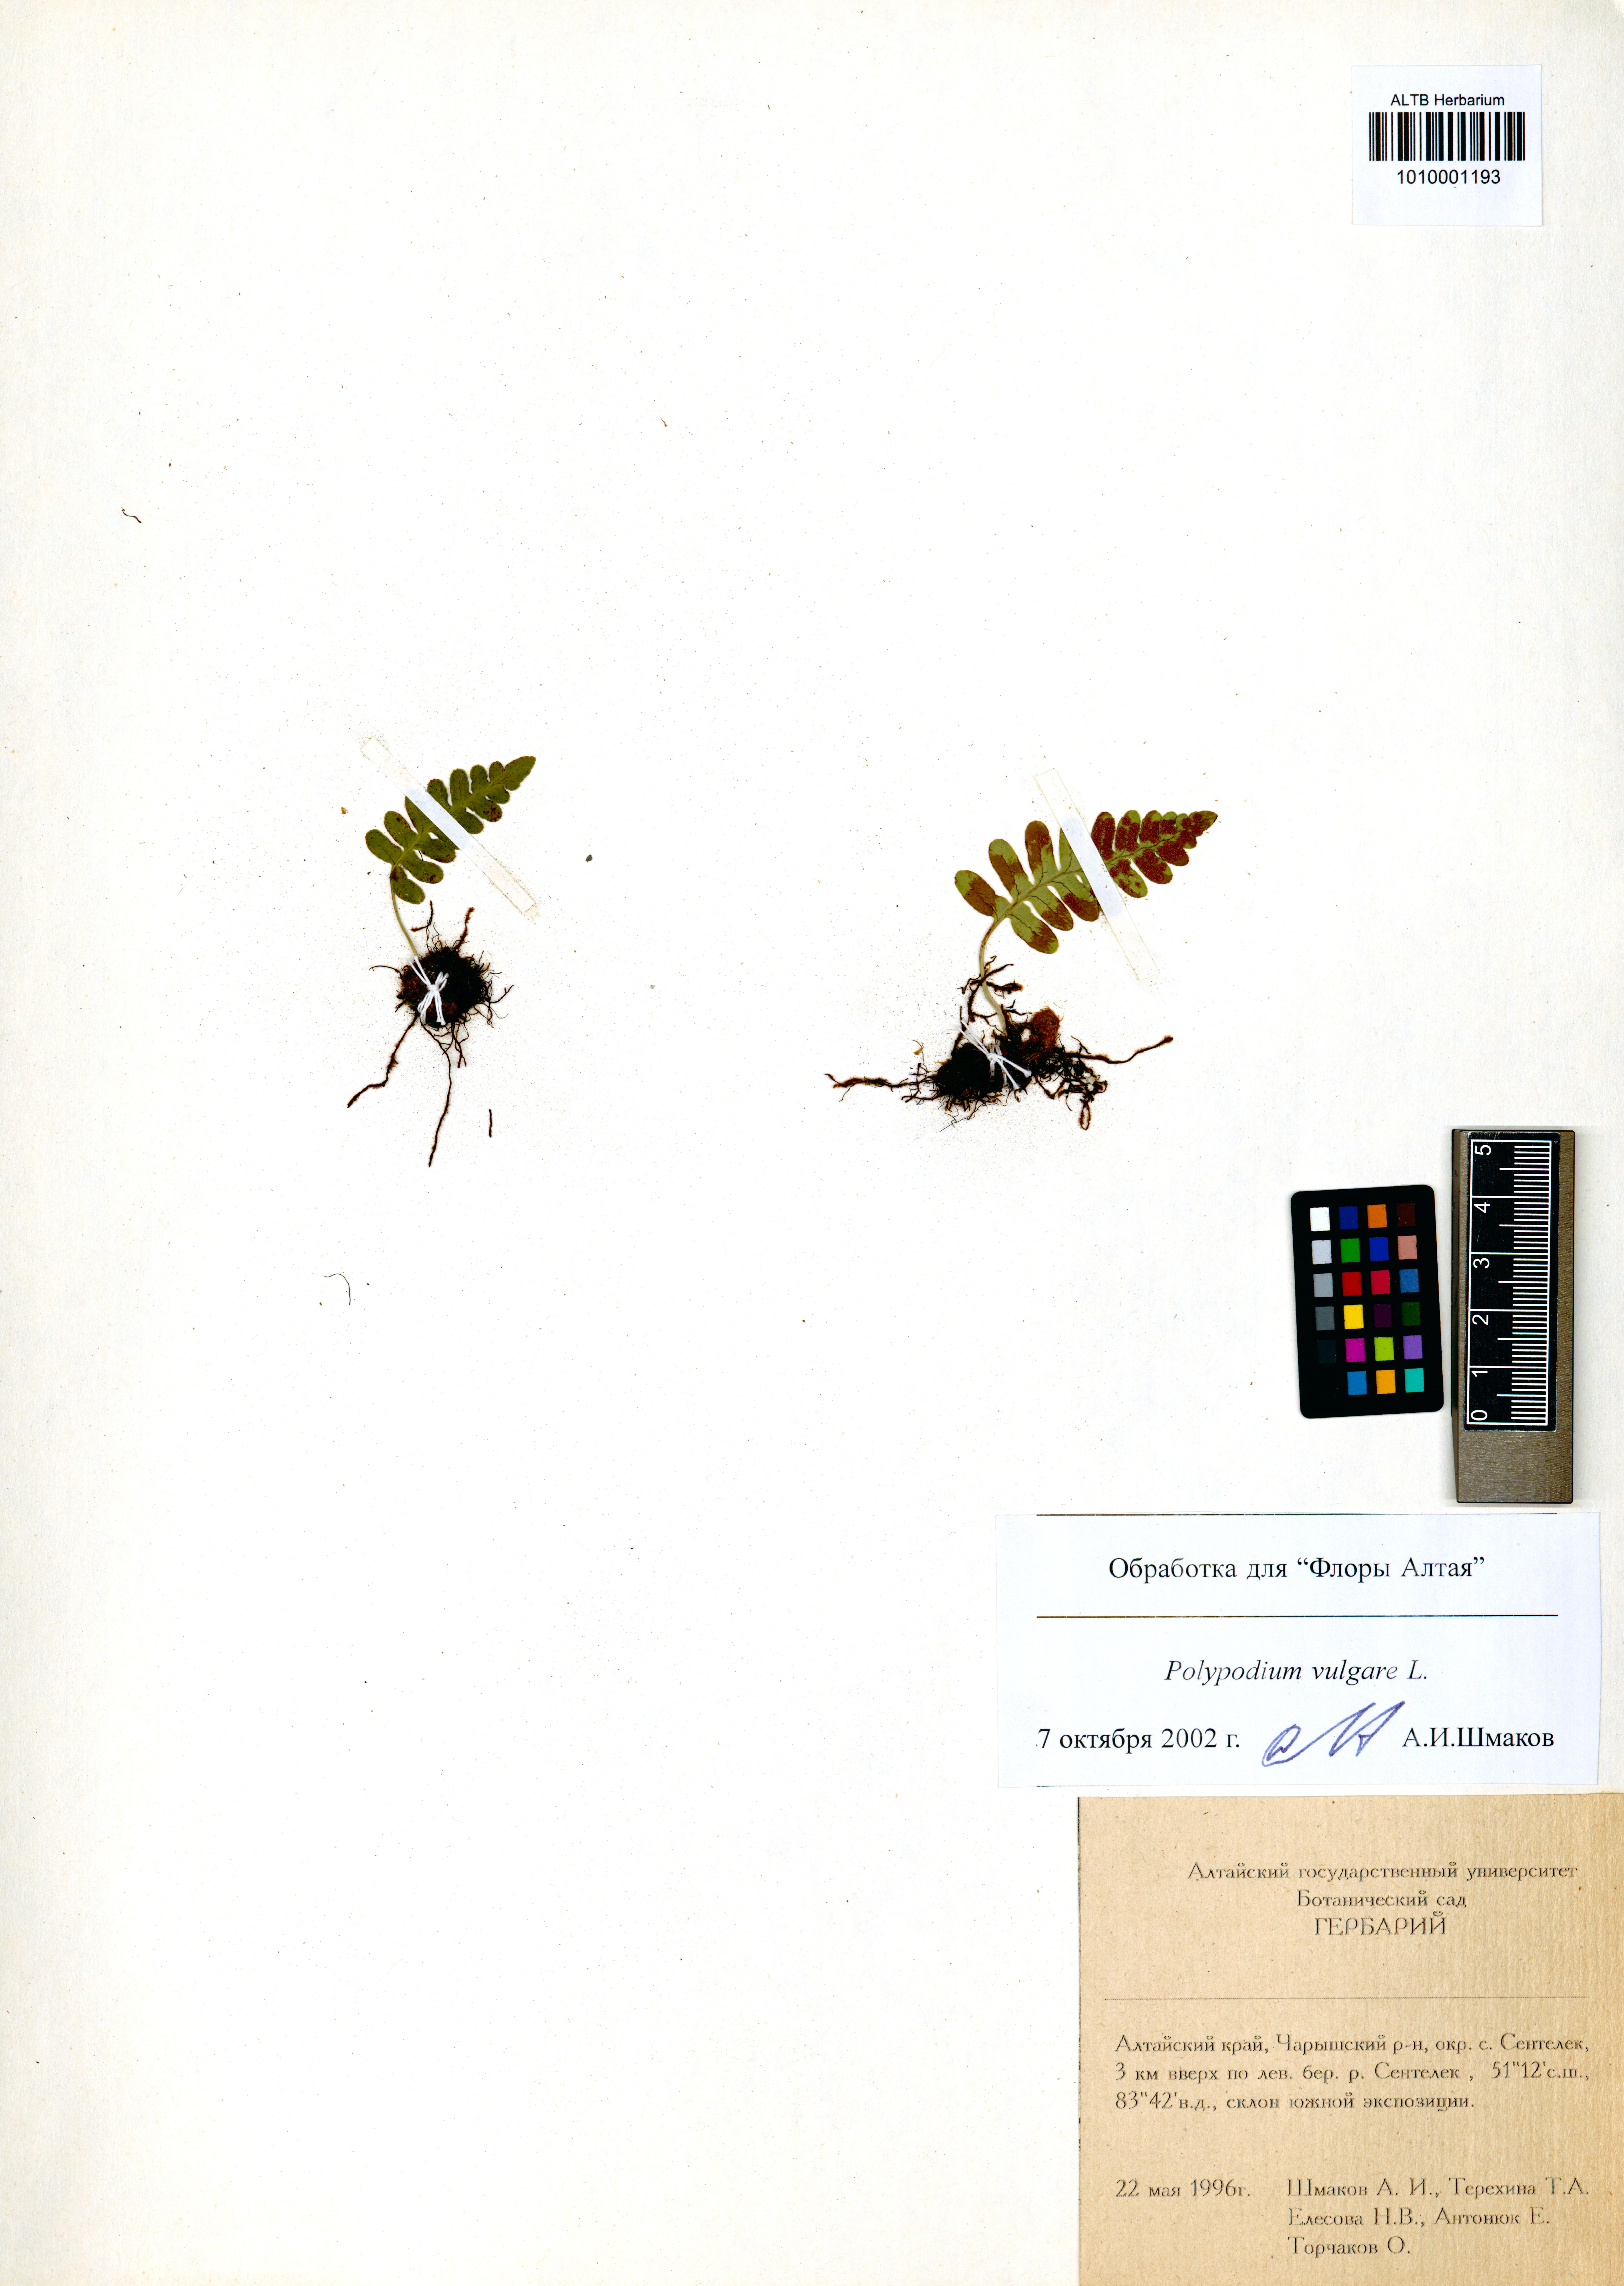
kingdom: Plantae
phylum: Tracheophyta
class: Polypodiopsida
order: Polypodiales
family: Polypodiaceae
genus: Polypodium
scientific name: Polypodium vulgare
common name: Common polypody
